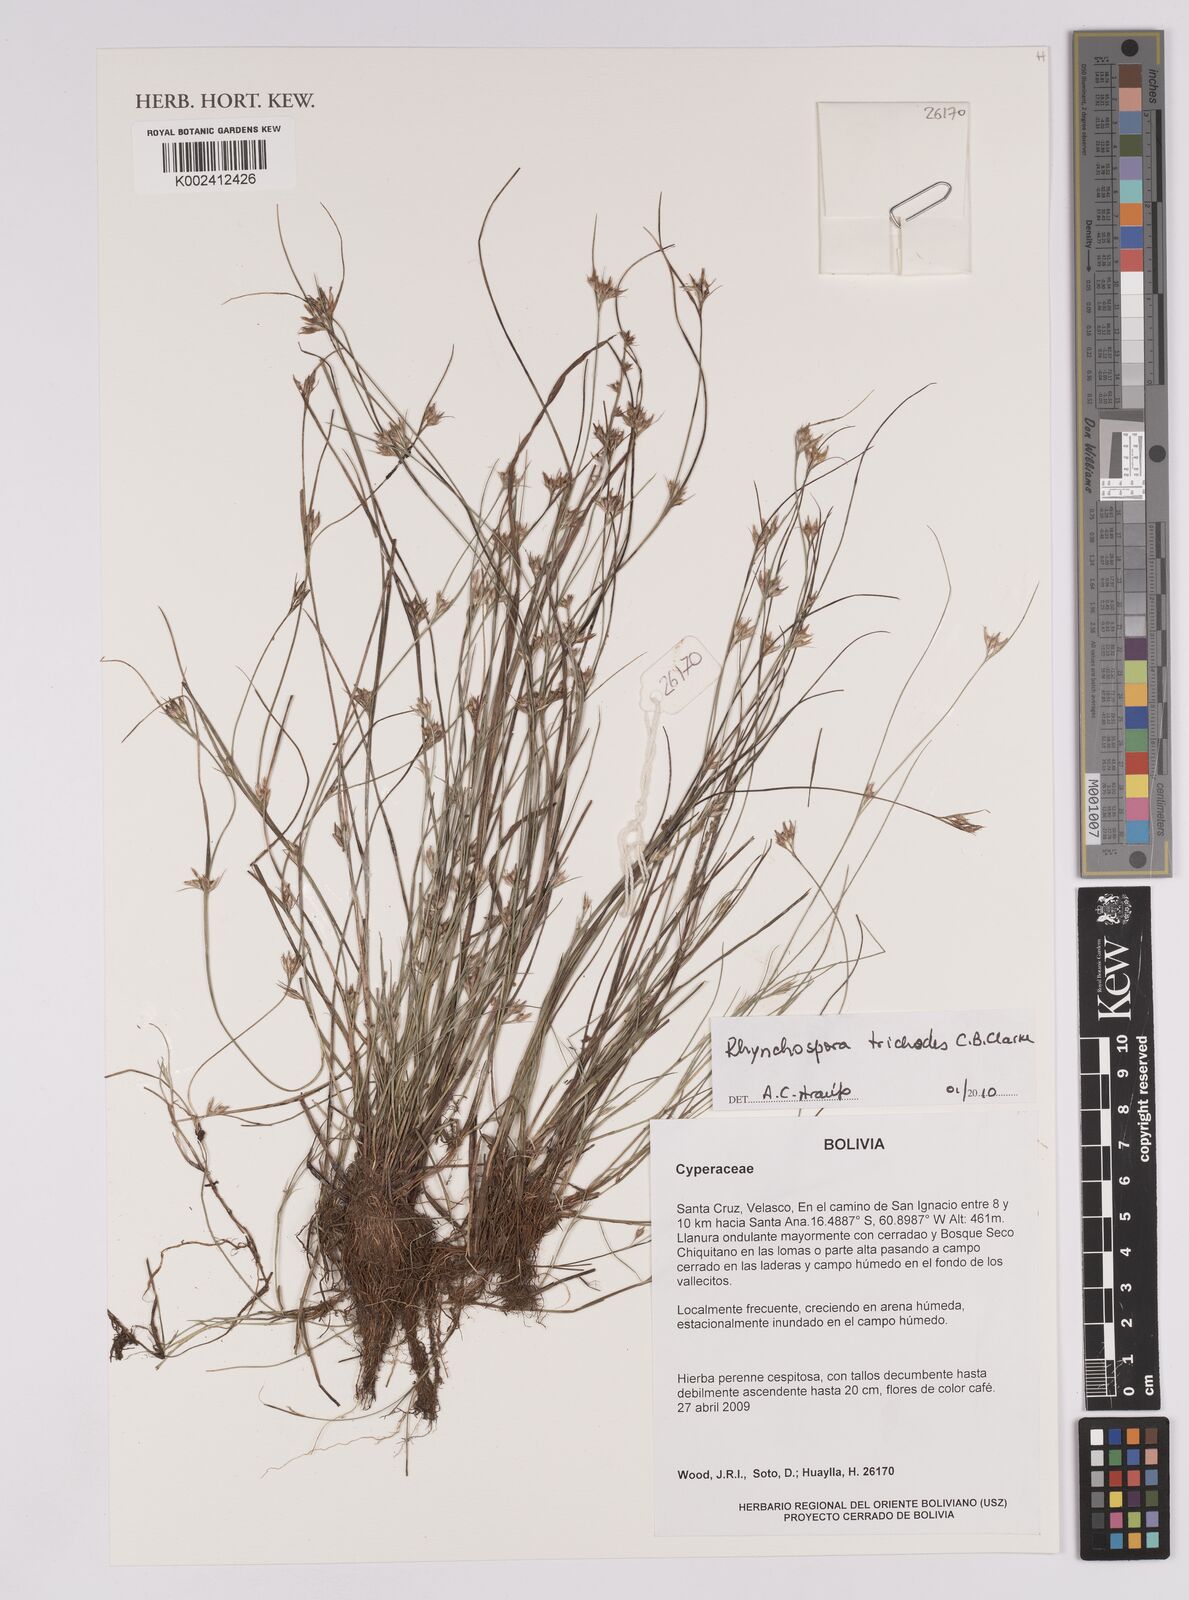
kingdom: Plantae
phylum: Tracheophyta
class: Liliopsida
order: Poales
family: Cyperaceae
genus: Rhynchospora
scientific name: Rhynchospora divaricata
